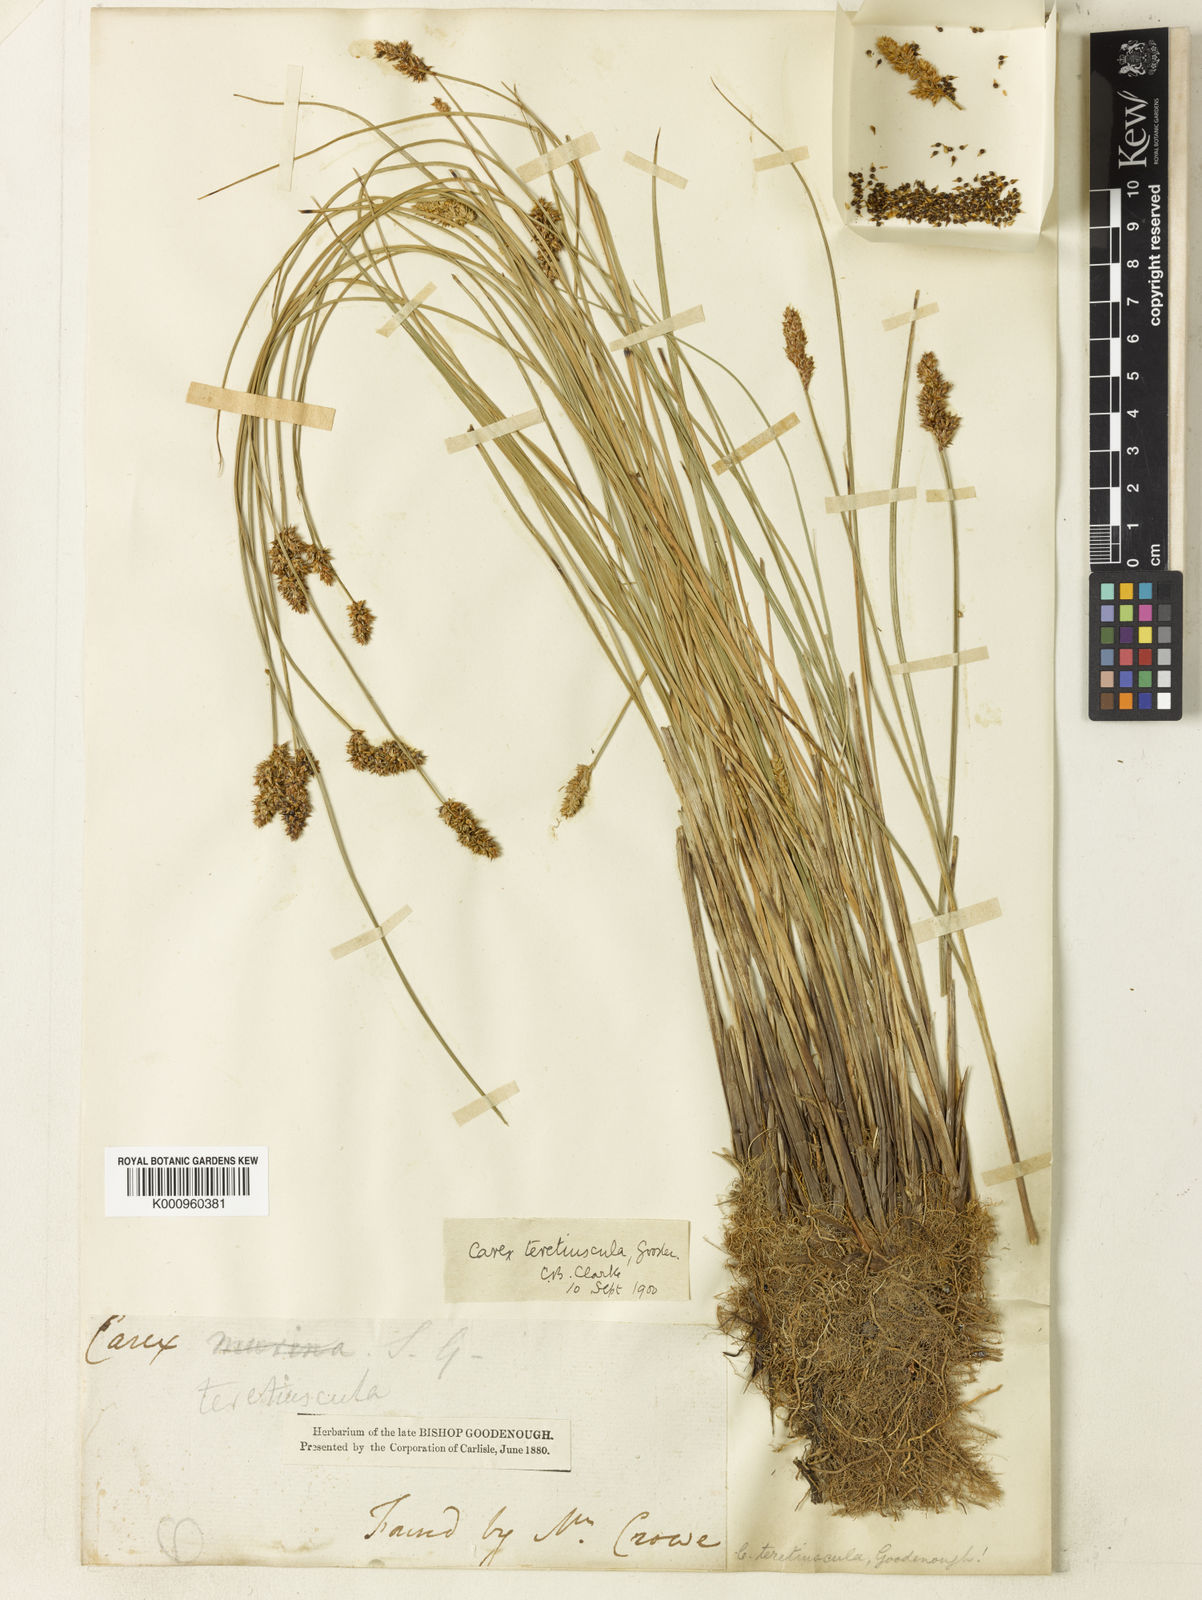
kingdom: Plantae
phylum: Tracheophyta
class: Liliopsida
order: Poales
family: Cyperaceae
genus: Carex
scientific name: Carex diandra
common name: Lesser tussock-sedge
